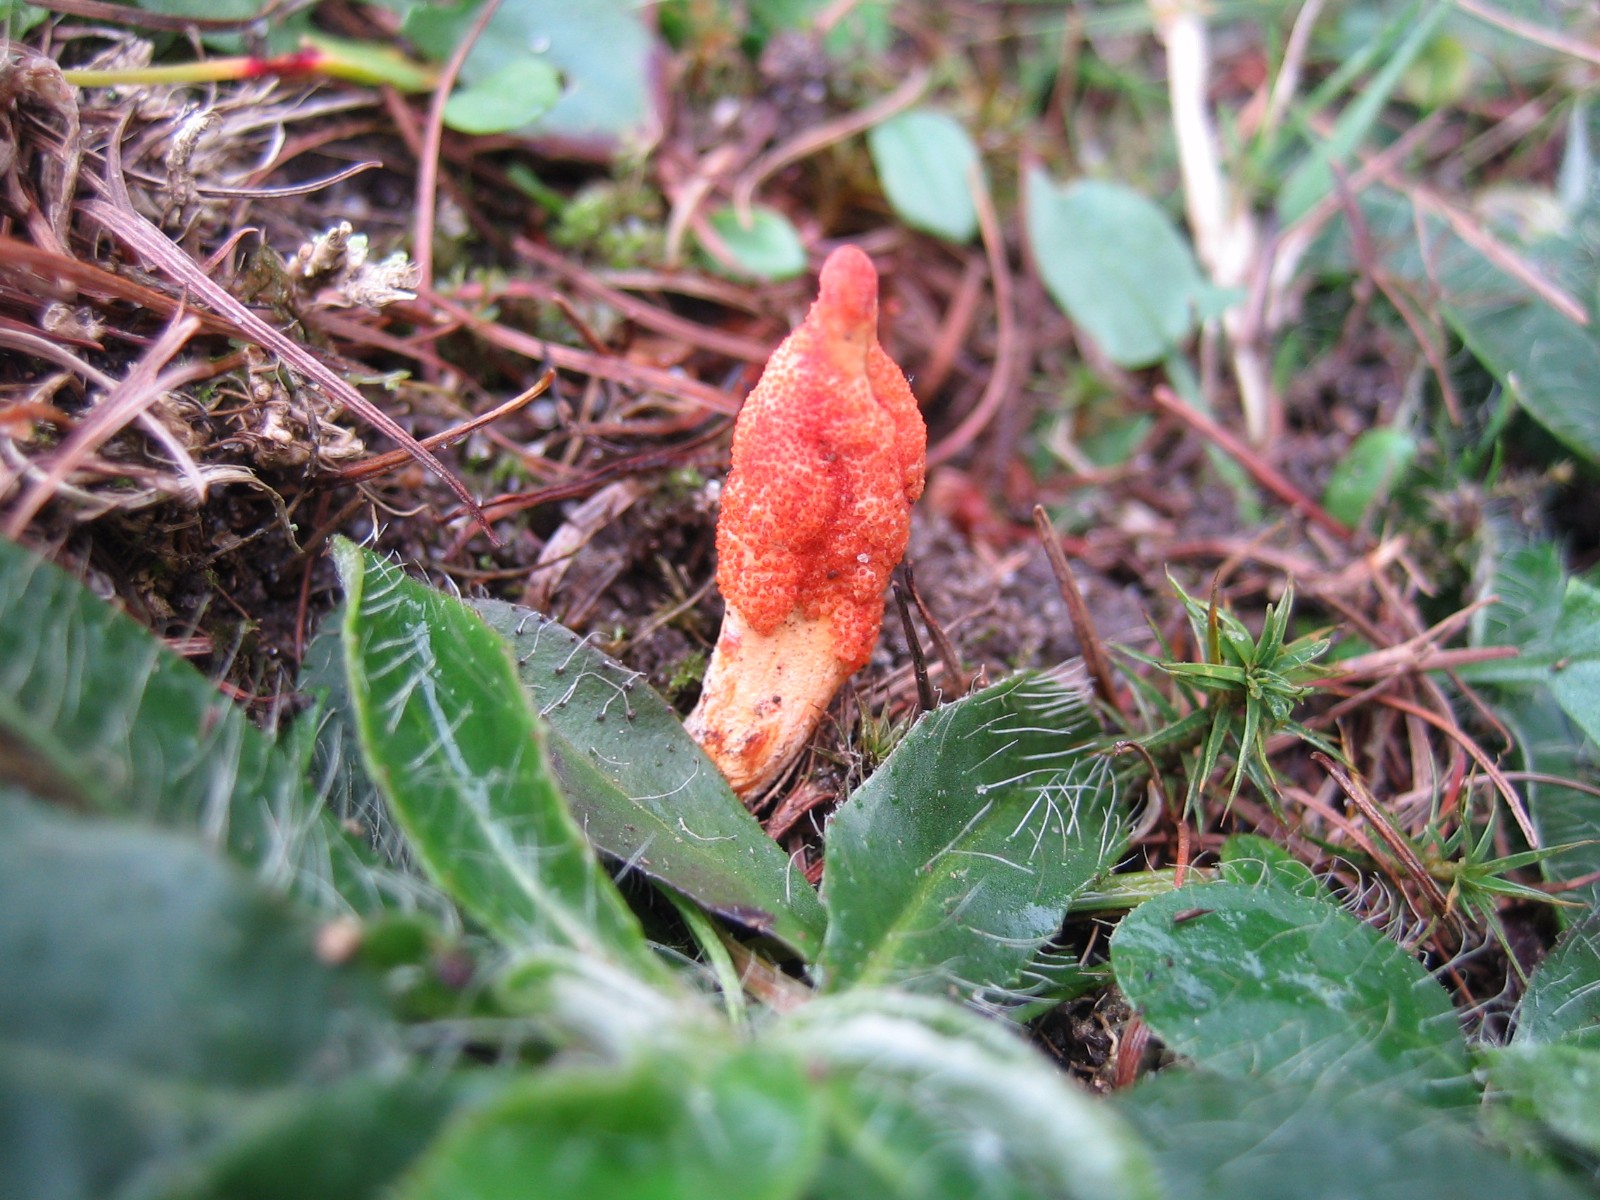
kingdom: Fungi
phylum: Ascomycota
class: Sordariomycetes
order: Hypocreales
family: Cordycipitaceae
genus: Cordyceps
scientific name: Cordyceps militaris
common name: puppe-snyltekølle
